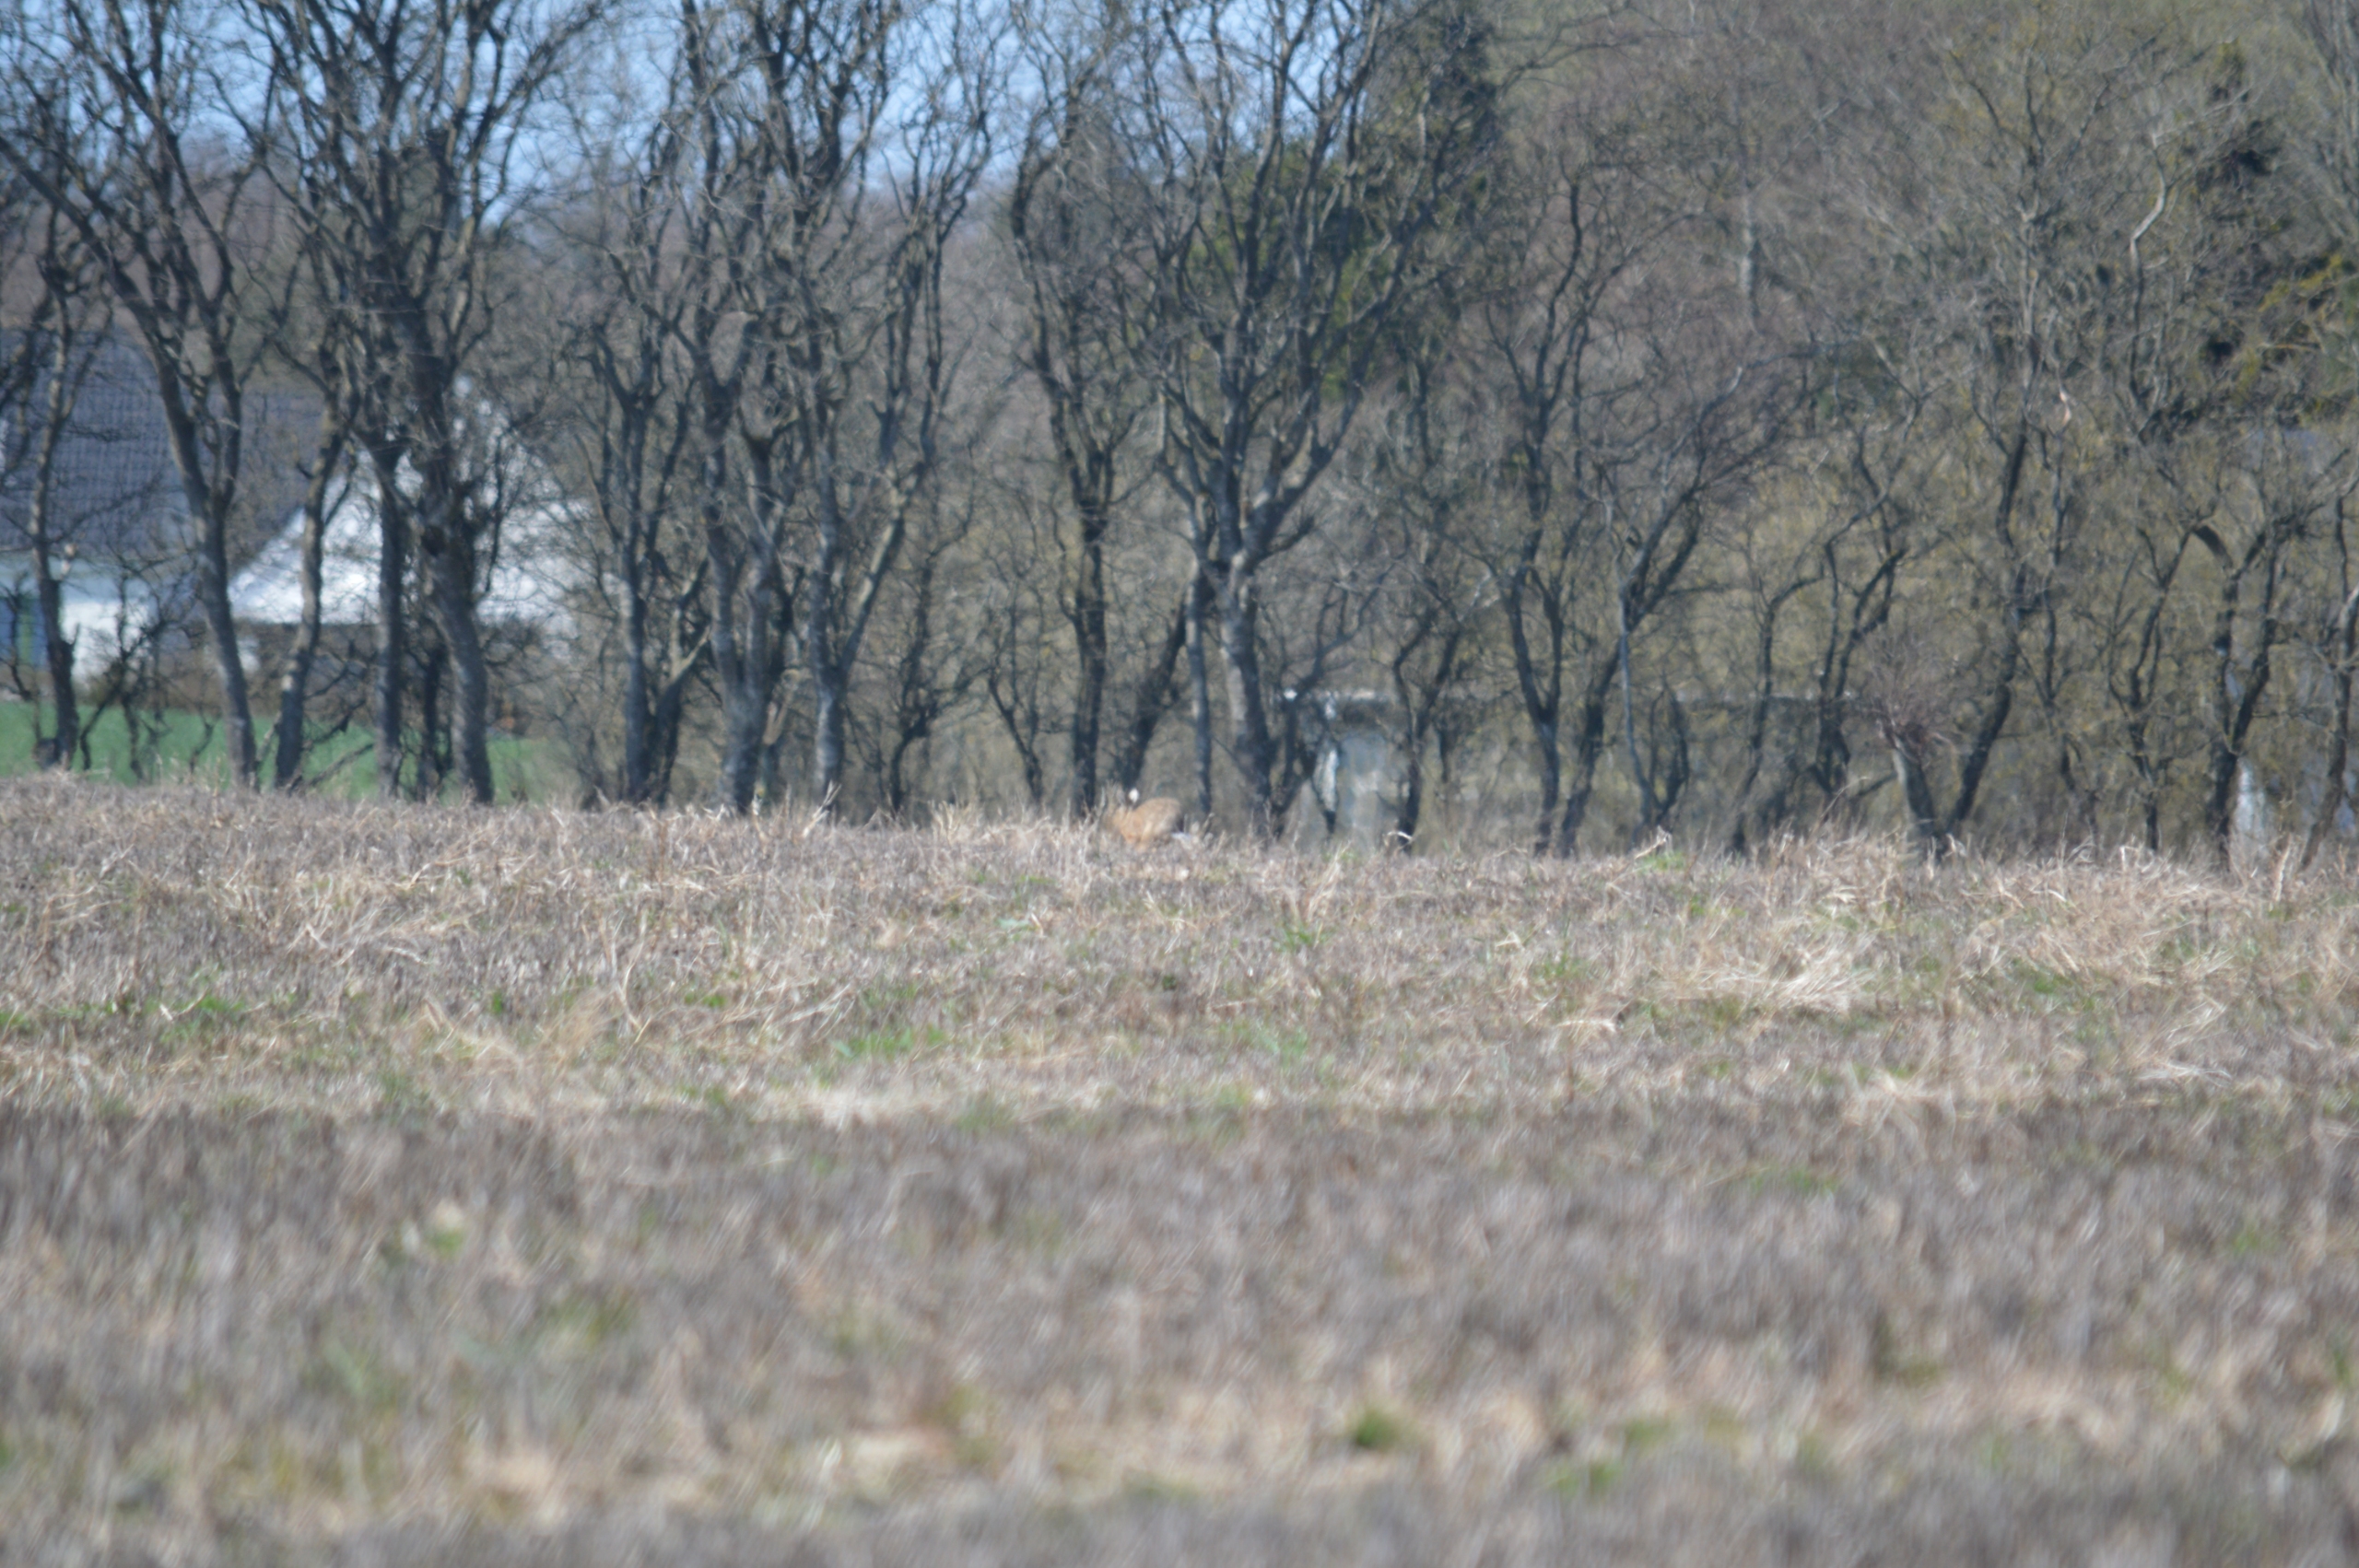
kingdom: Animalia
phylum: Chordata
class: Mammalia
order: Lagomorpha
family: Leporidae
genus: Lepus
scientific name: Lepus europaeus
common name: Hare
